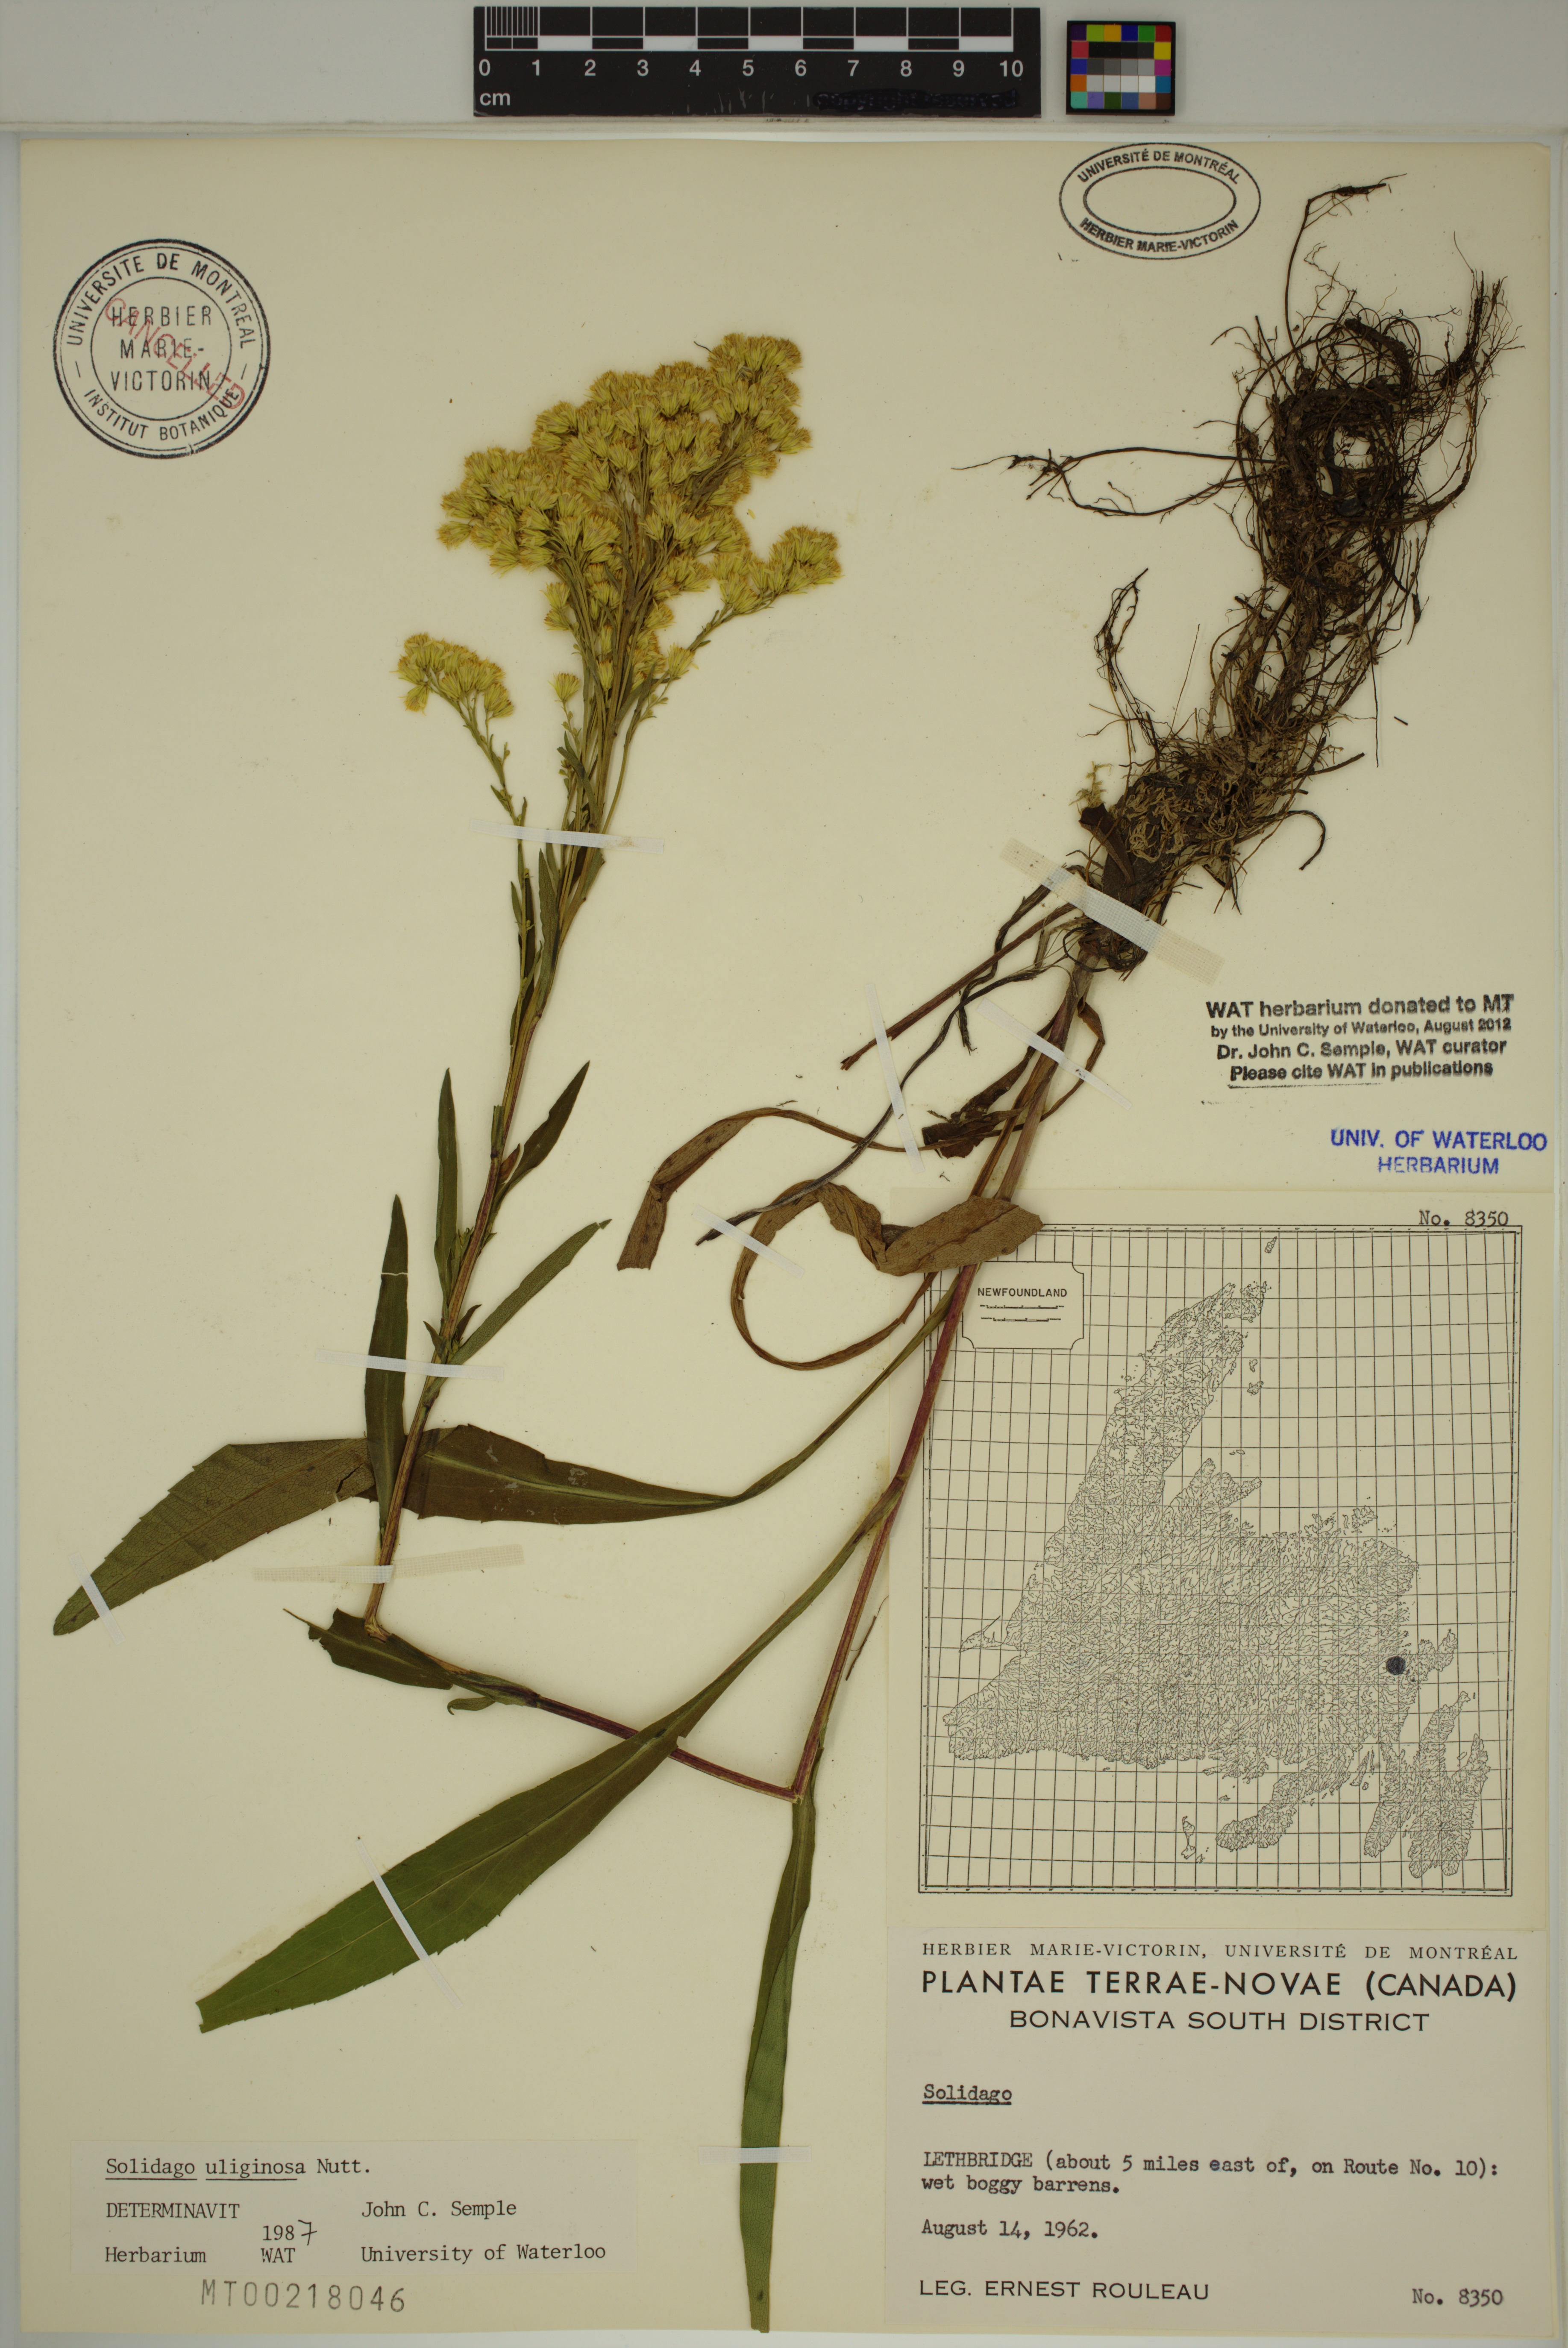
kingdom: Plantae
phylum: Tracheophyta
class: Magnoliopsida
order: Asterales
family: Asteraceae
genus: Solidago
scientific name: Solidago uliginosa
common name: Bog goldenrod
